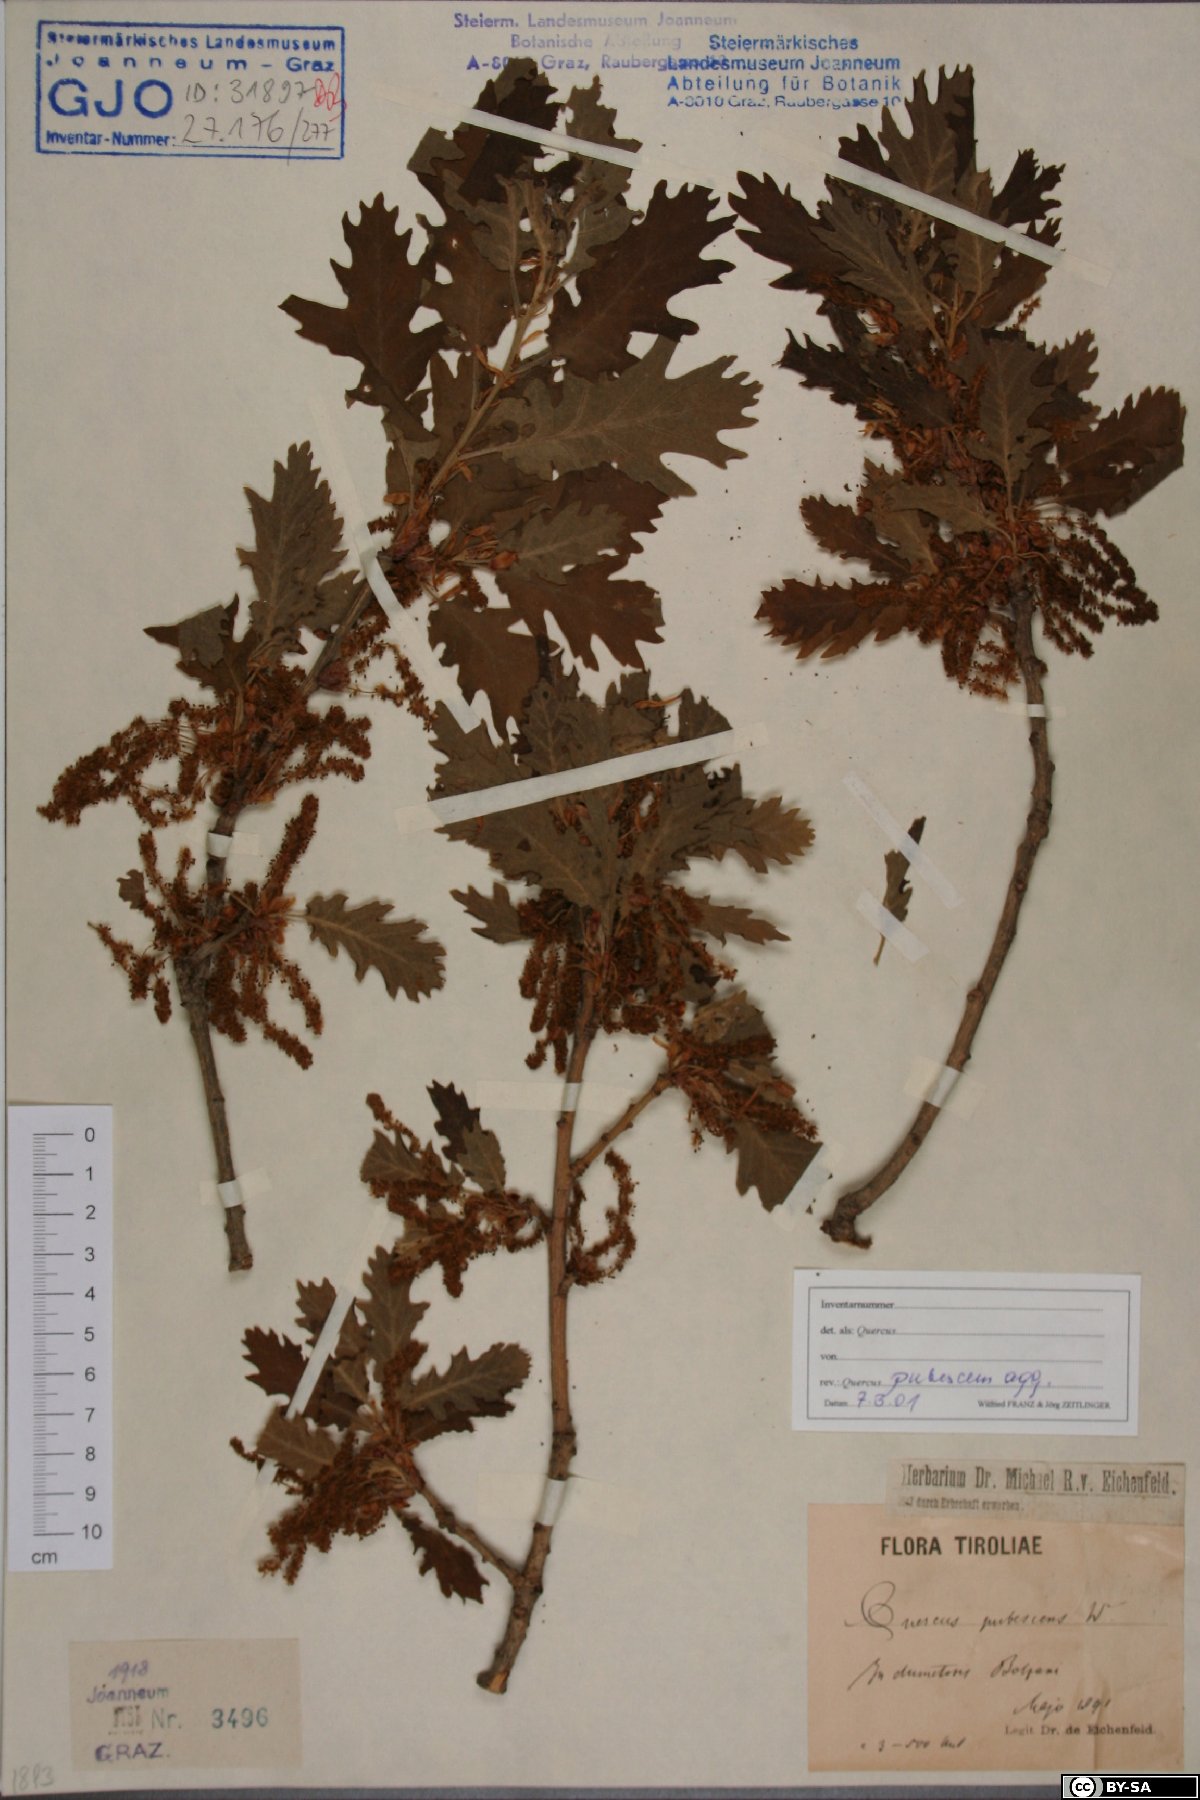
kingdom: Plantae
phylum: Tracheophyta
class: Magnoliopsida
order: Fagales
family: Fagaceae
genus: Quercus
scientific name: Quercus pubescens
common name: Downy oak
